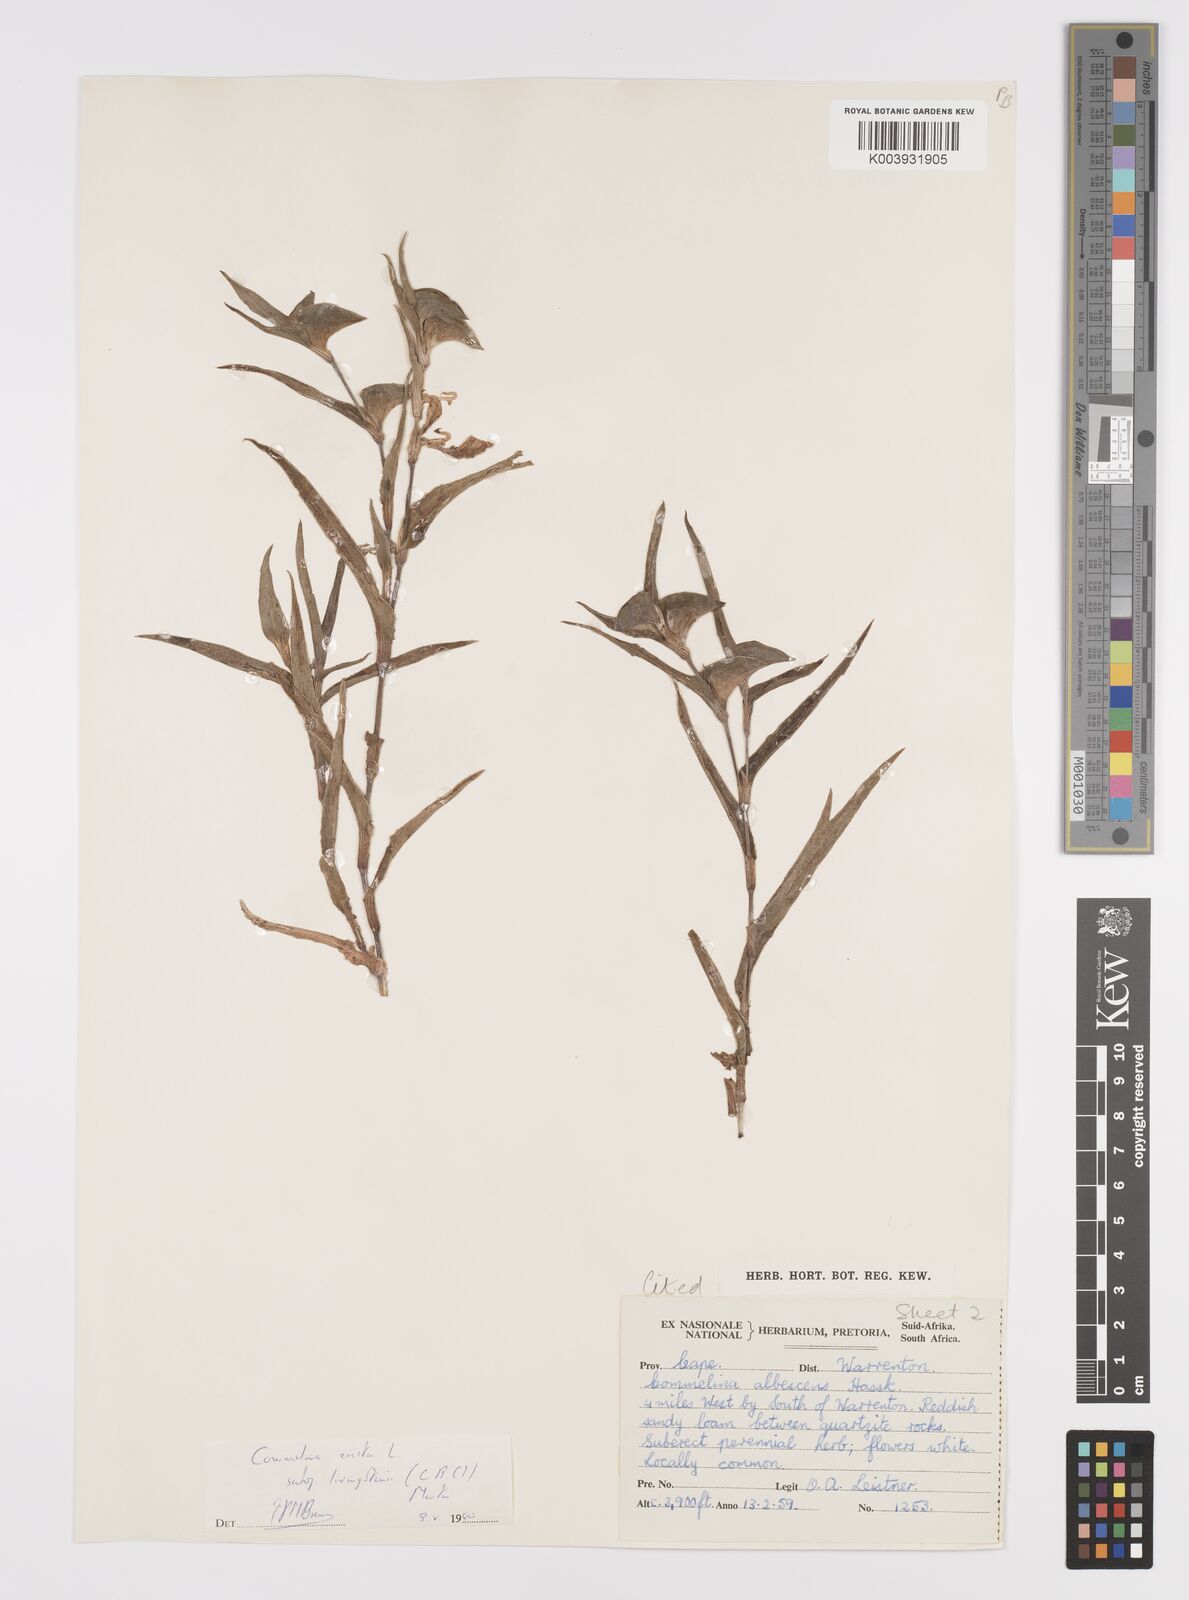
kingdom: Plantae
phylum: Tracheophyta
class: Liliopsida
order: Commelinales
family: Commelinaceae
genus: Commelina
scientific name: Commelina erecta
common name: Blousel blommetjie
